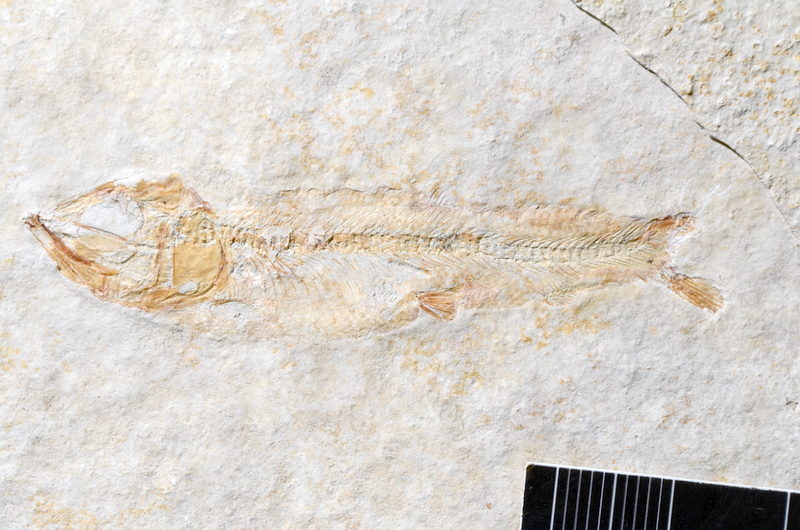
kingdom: Animalia
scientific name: Animalia
